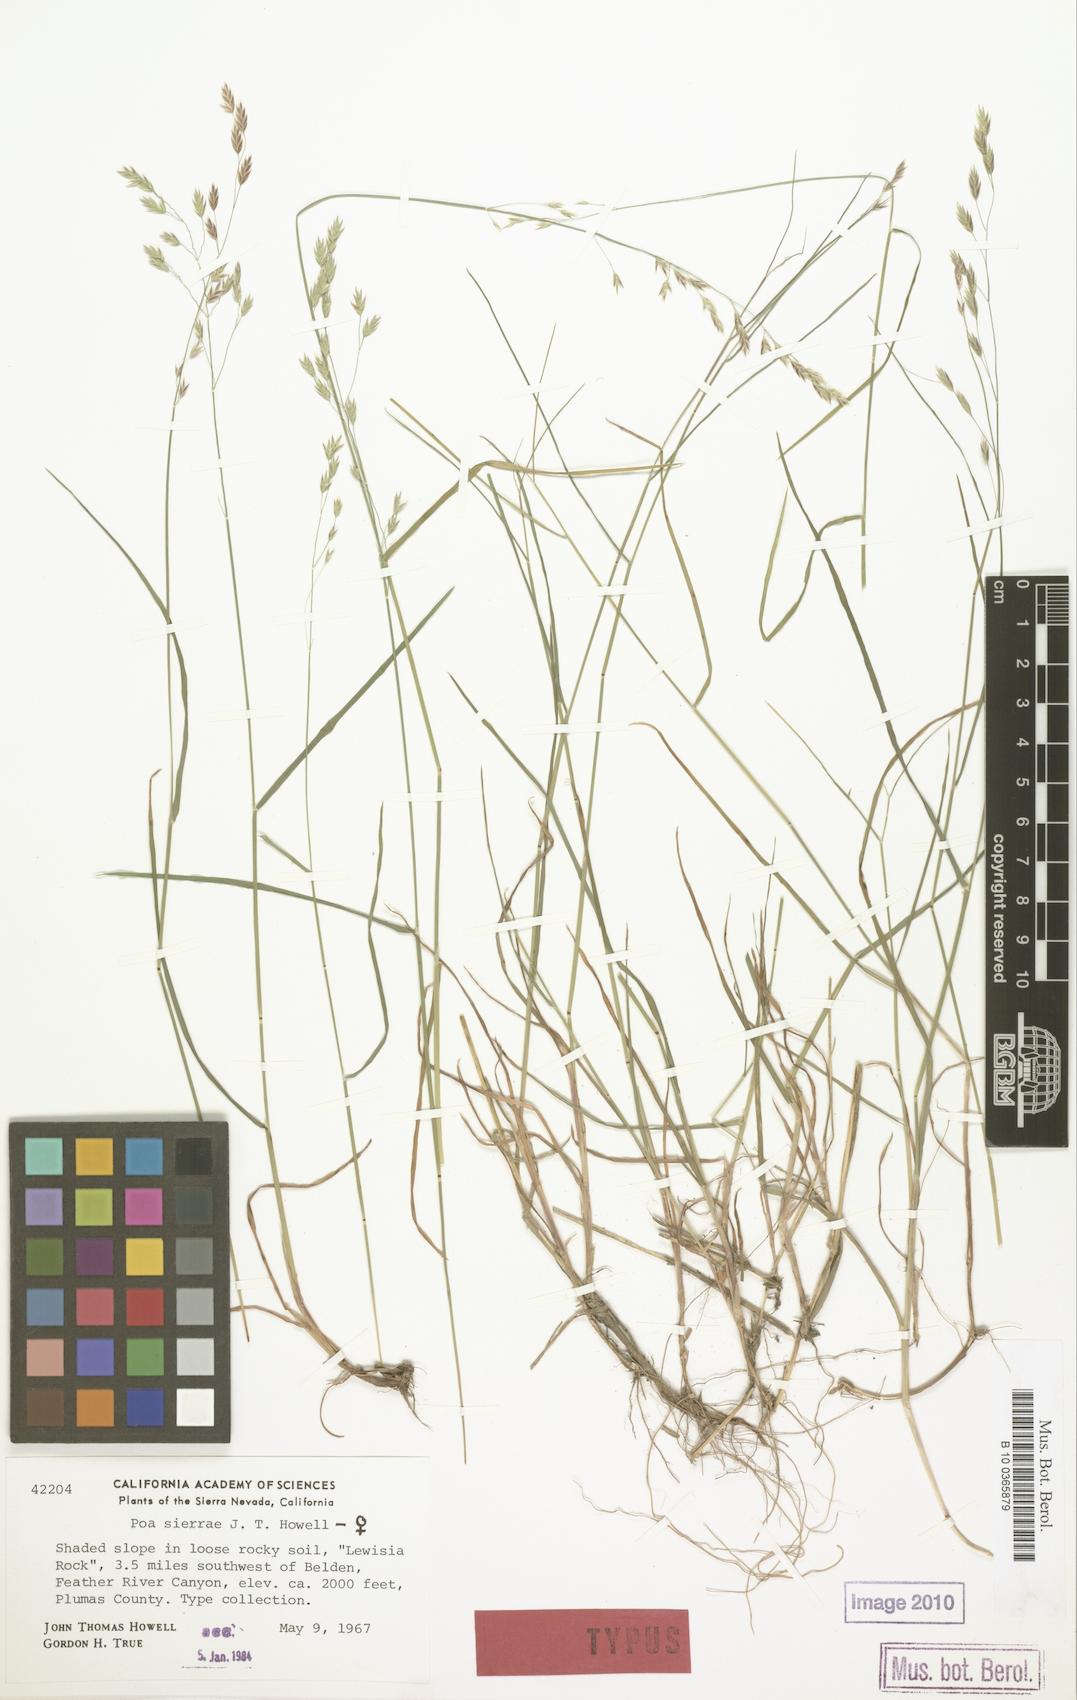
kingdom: Plantae
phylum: Tracheophyta
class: Liliopsida
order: Poales
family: Poaceae
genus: Poa
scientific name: Poa sierrae
